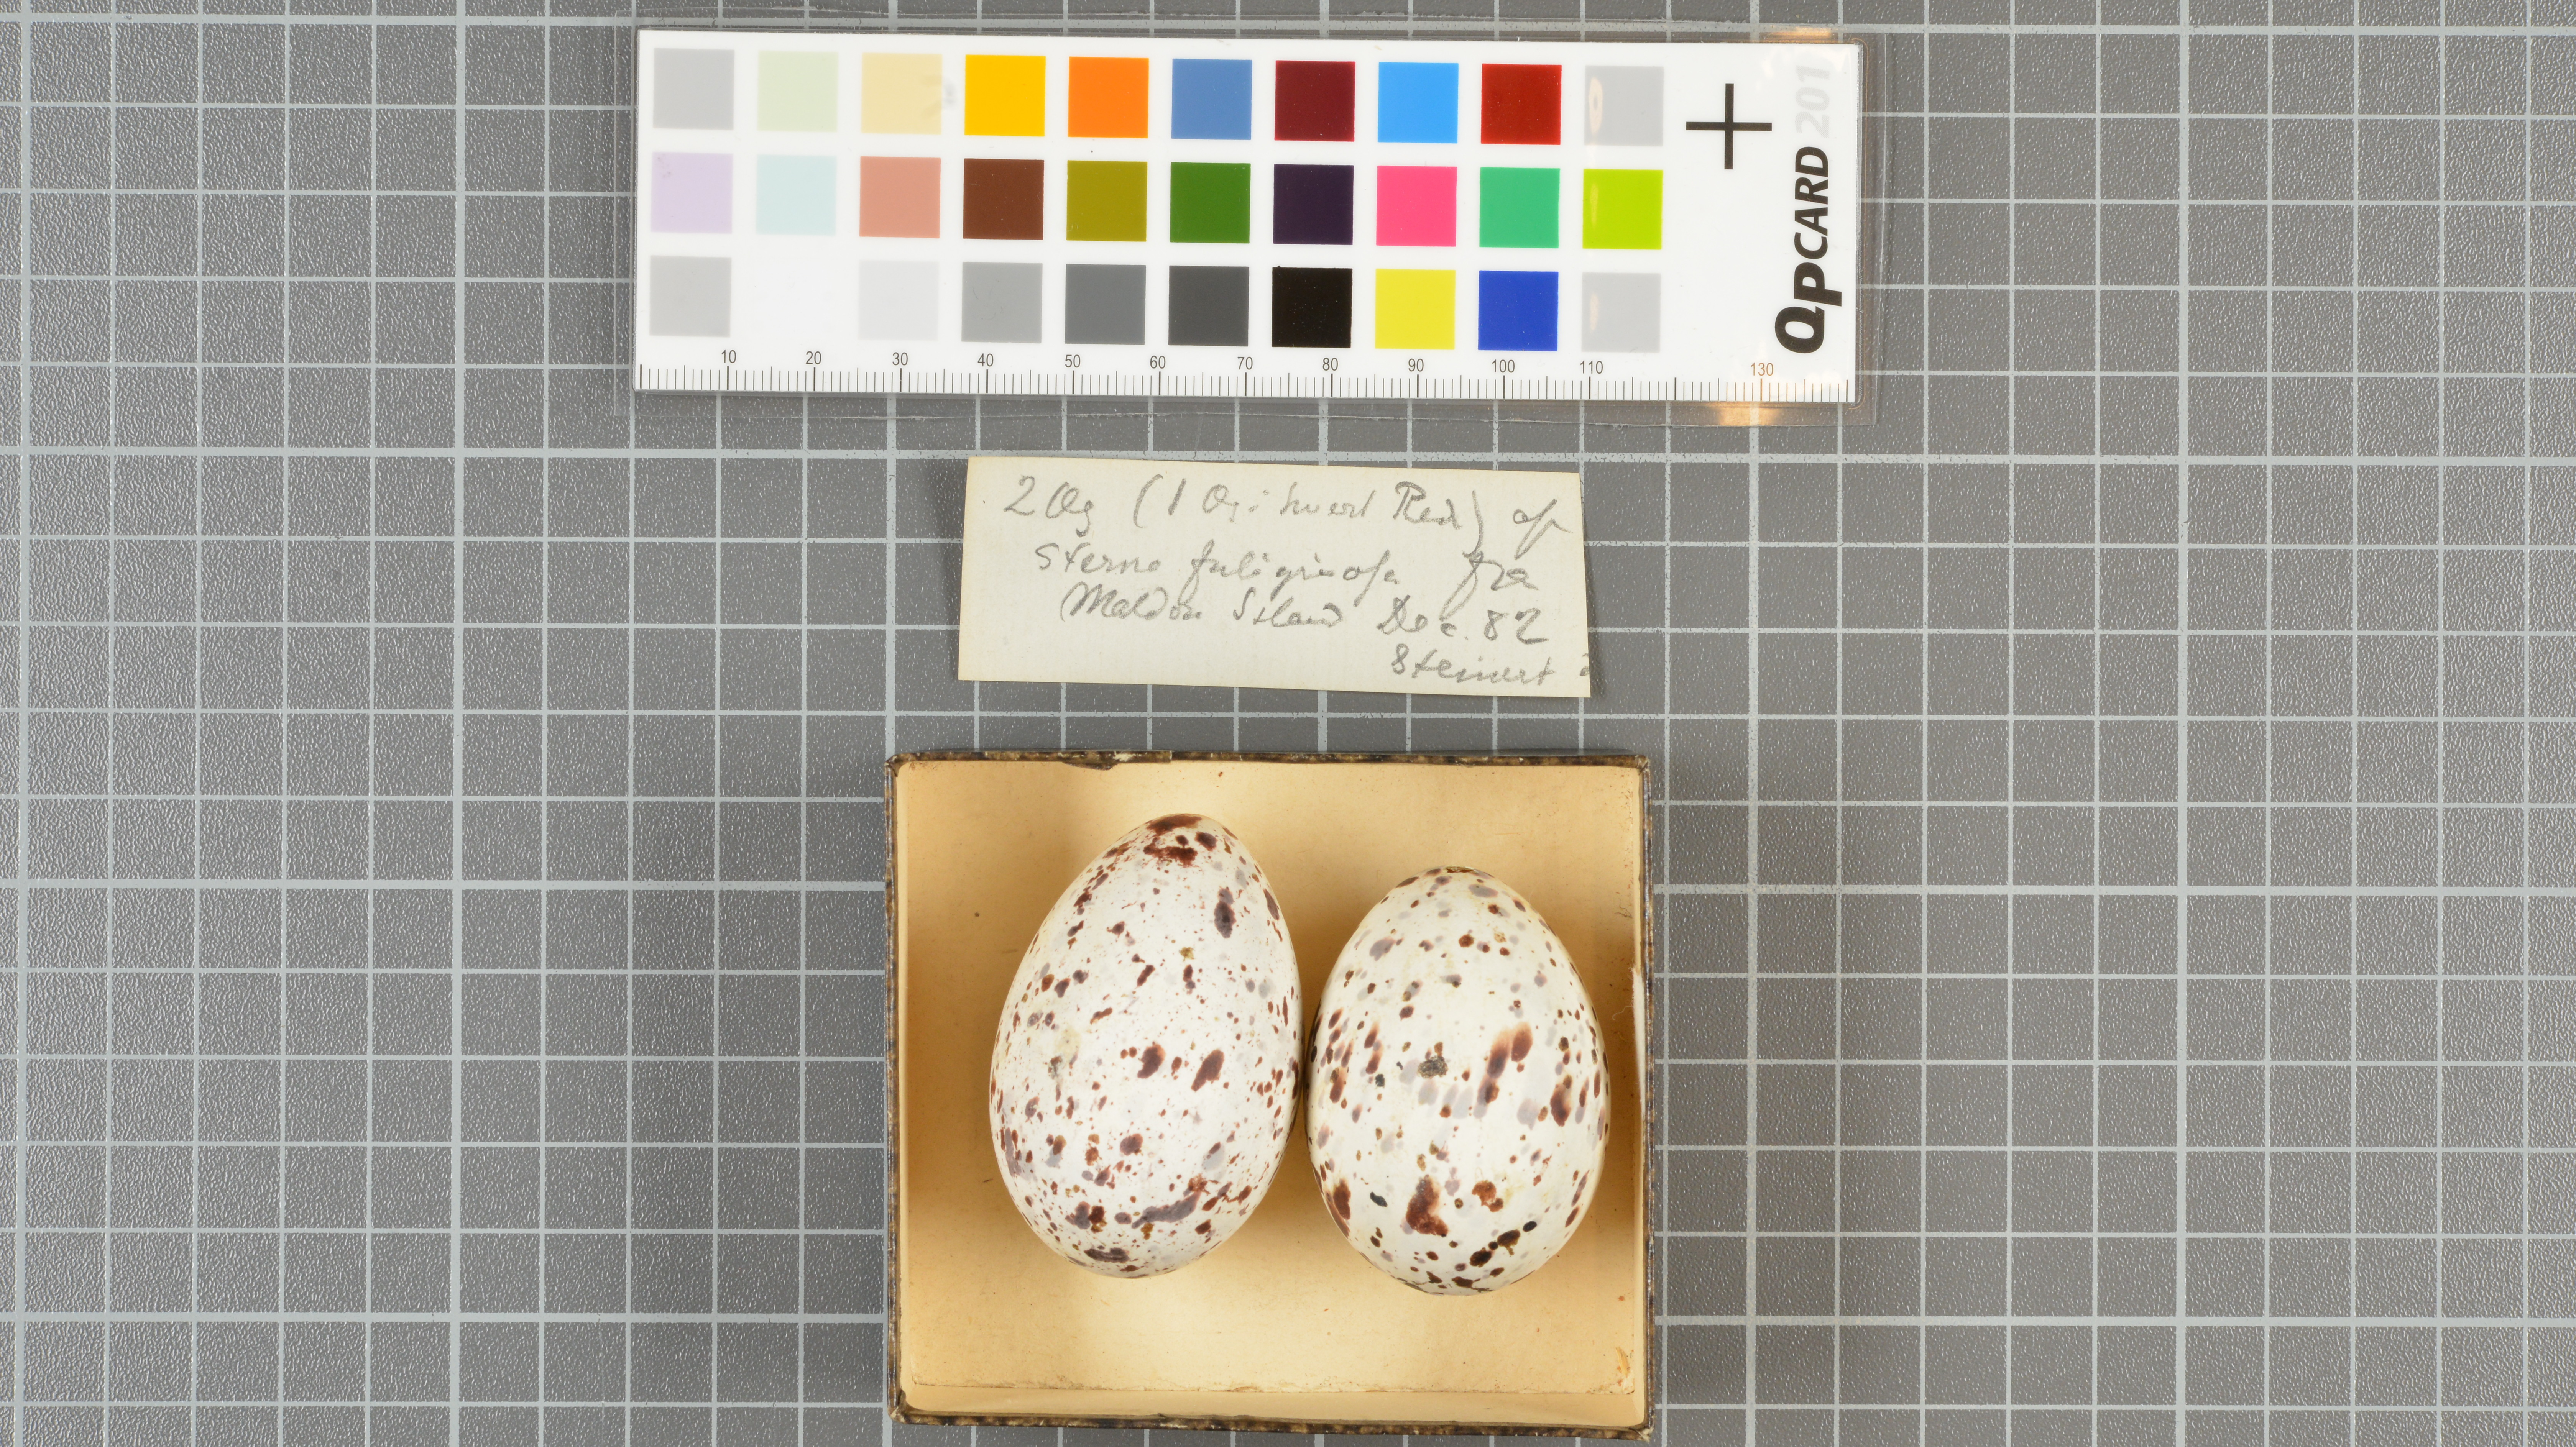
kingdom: Animalia
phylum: Chordata
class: Aves
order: Charadriiformes
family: Laridae
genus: Onychoprion
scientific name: Onychoprion fuscatus
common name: Sooty tern
